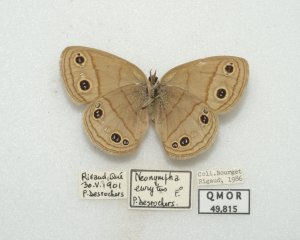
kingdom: Animalia
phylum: Arthropoda
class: Insecta
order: Lepidoptera
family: Nymphalidae
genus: Euptychia
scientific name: Euptychia cymela
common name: Little Wood Satyr
